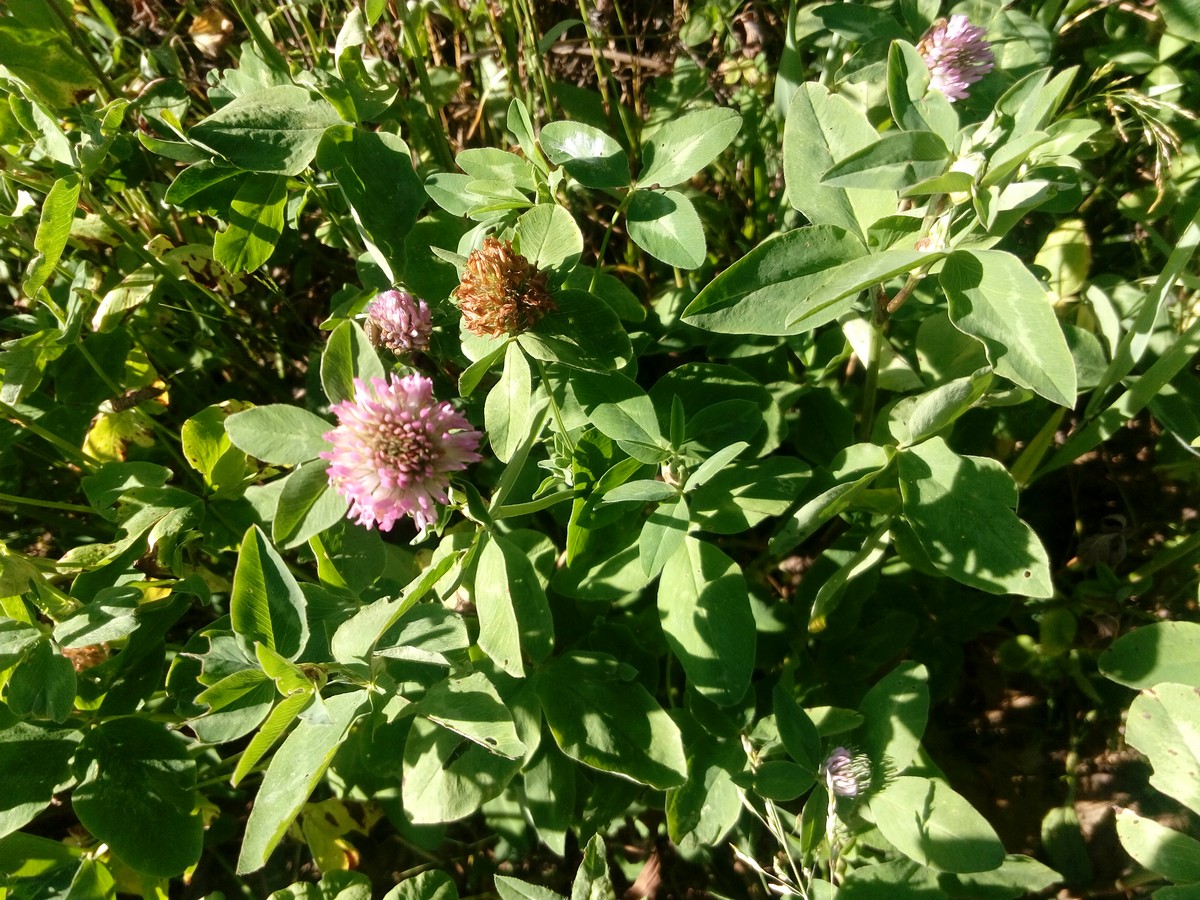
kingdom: Plantae
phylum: Tracheophyta
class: Magnoliopsida
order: Fabales
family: Fabaceae
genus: Trifolium
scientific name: Trifolium pratense
